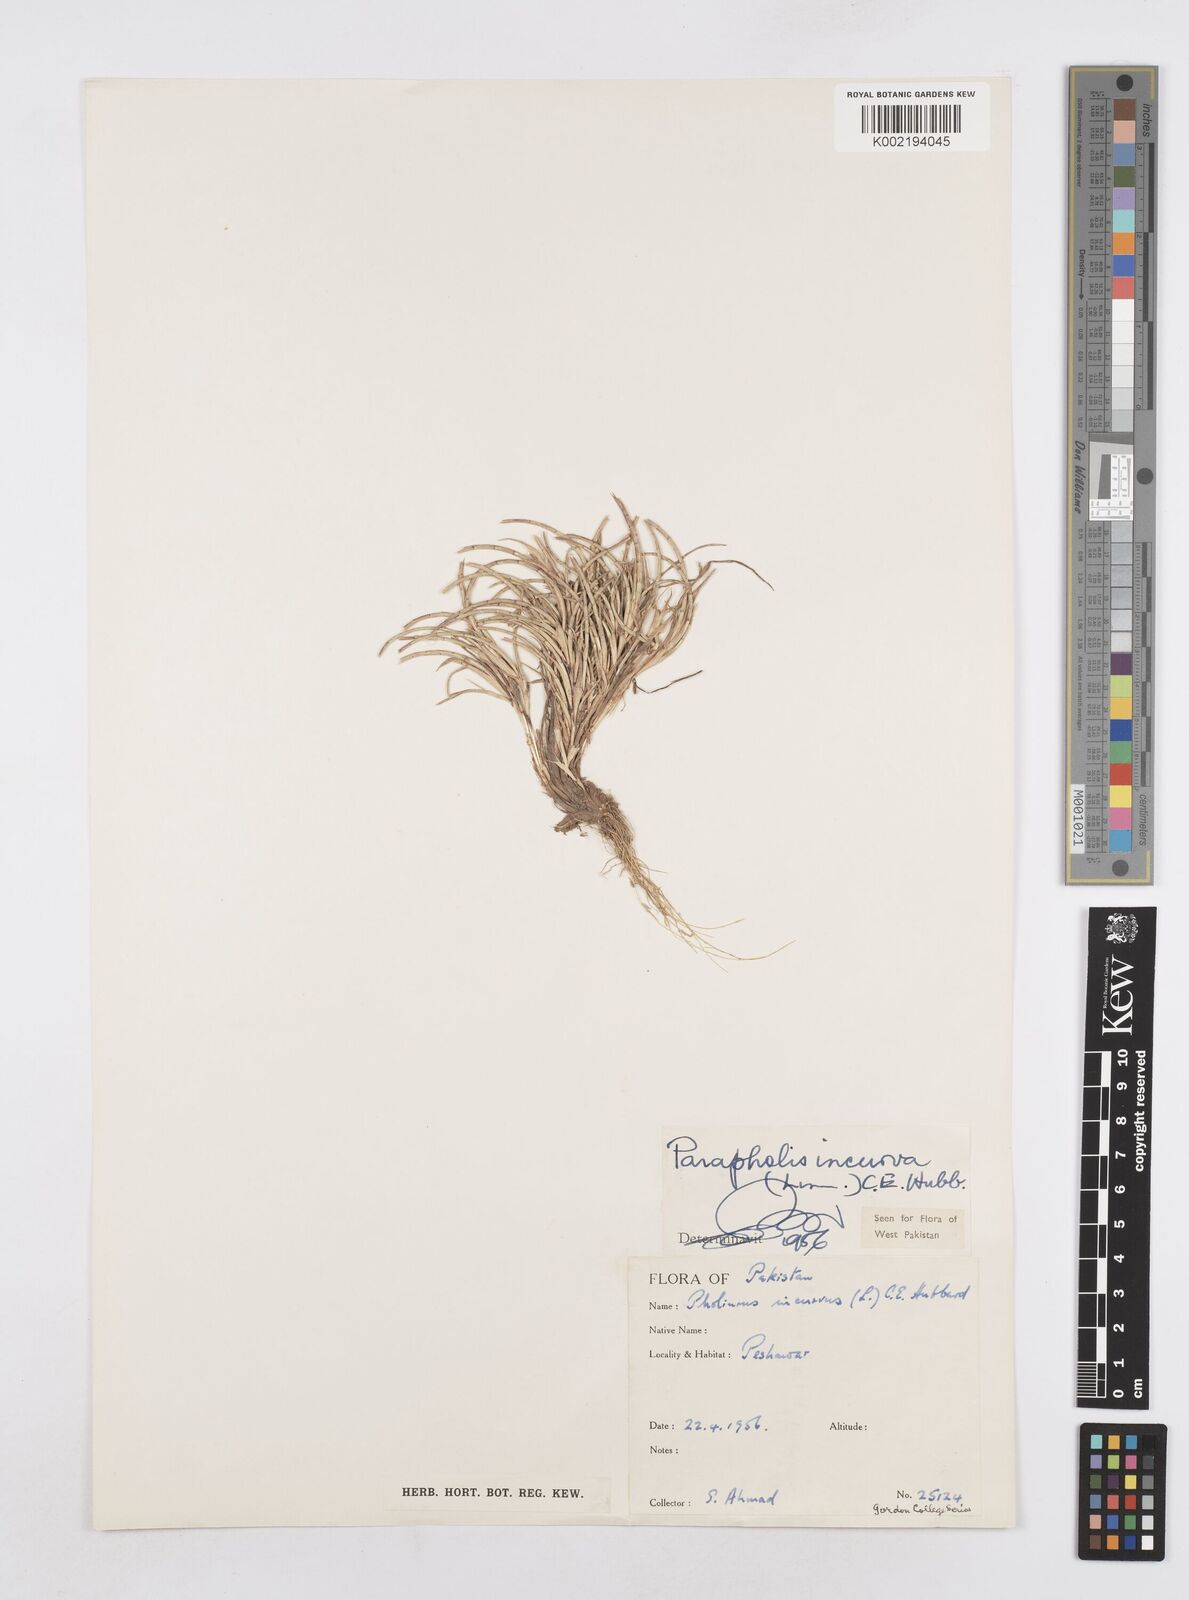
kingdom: Plantae
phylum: Tracheophyta
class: Liliopsida
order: Poales
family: Poaceae
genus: Parapholis
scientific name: Parapholis incurva
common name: Curved sicklegrass
